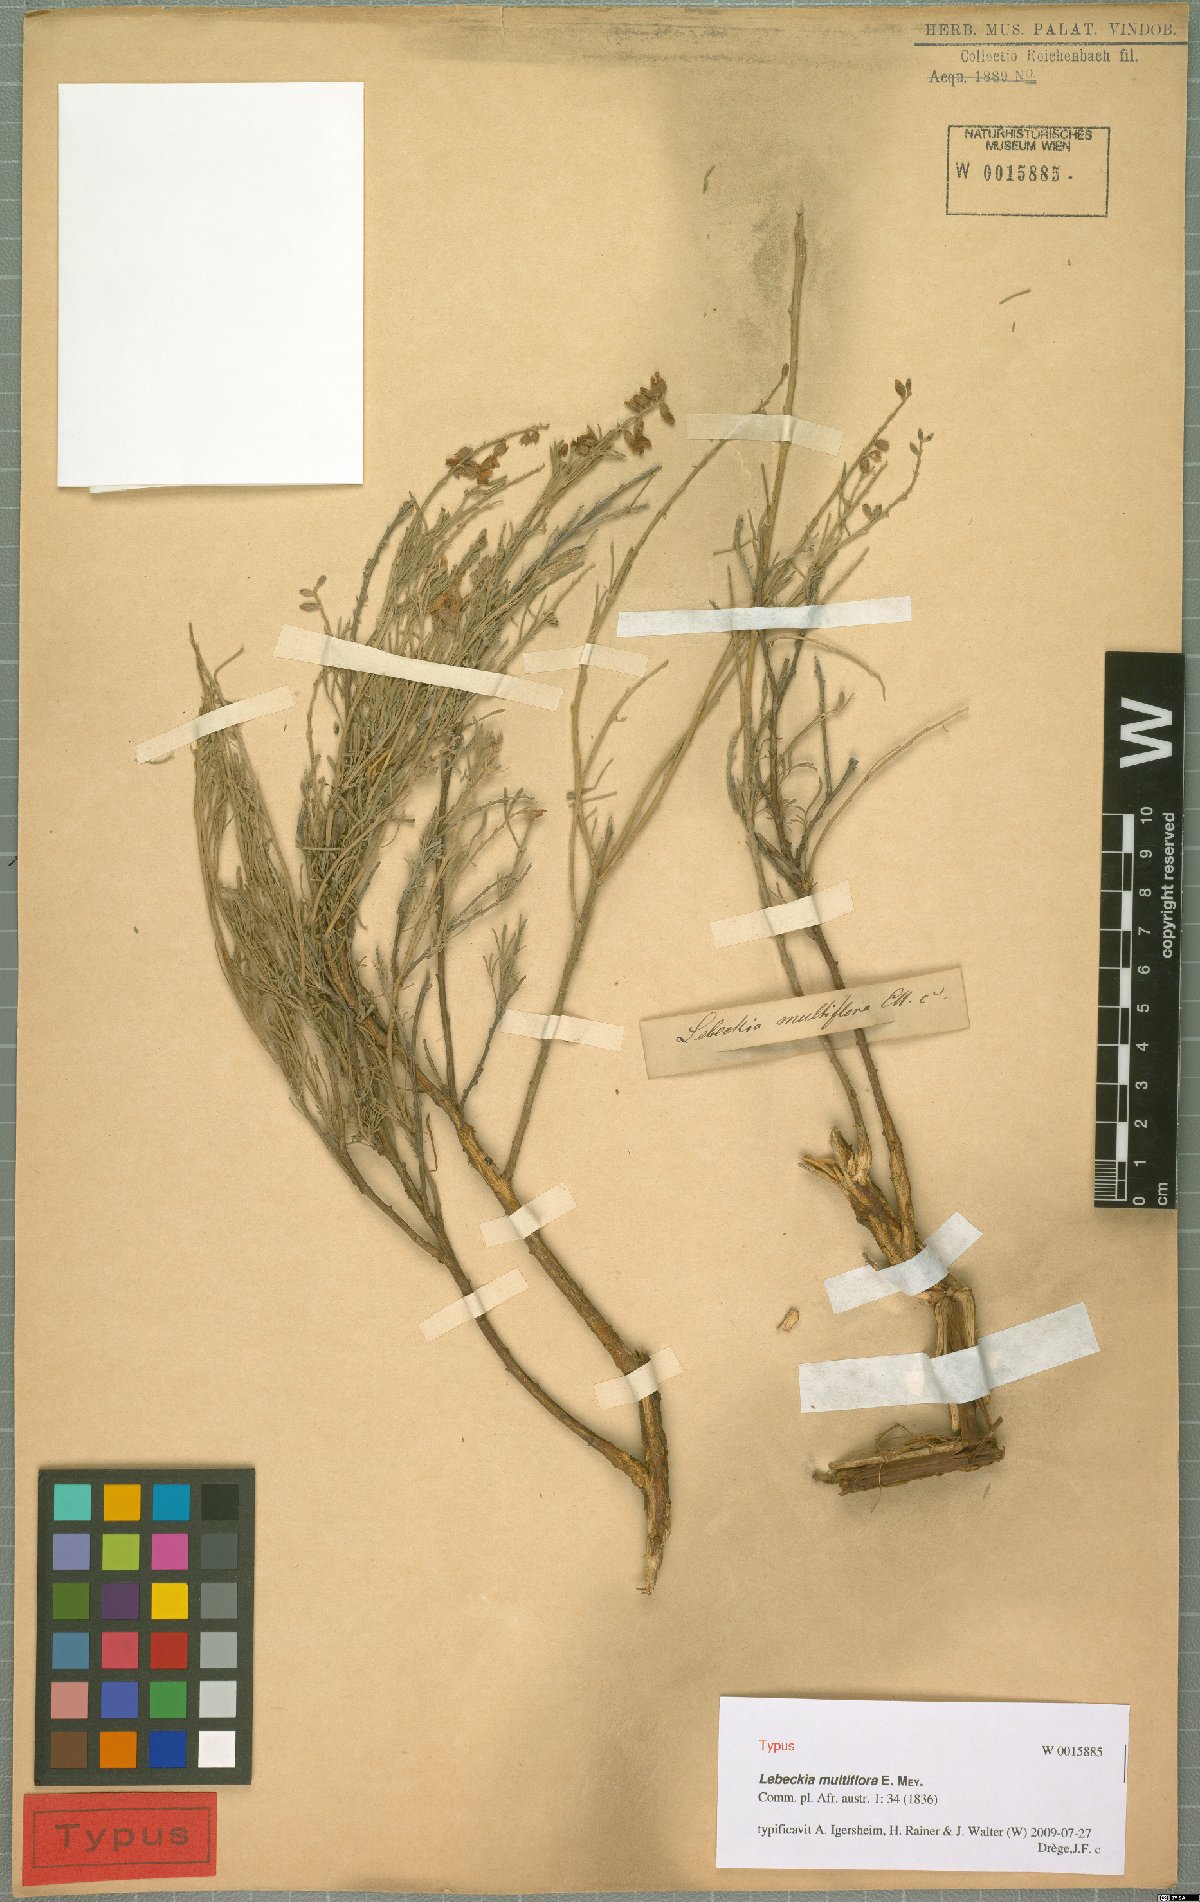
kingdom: Plantae
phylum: Tracheophyta
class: Magnoliopsida
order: Fabales
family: Fabaceae
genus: Calobota
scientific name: Calobota angustifolia
